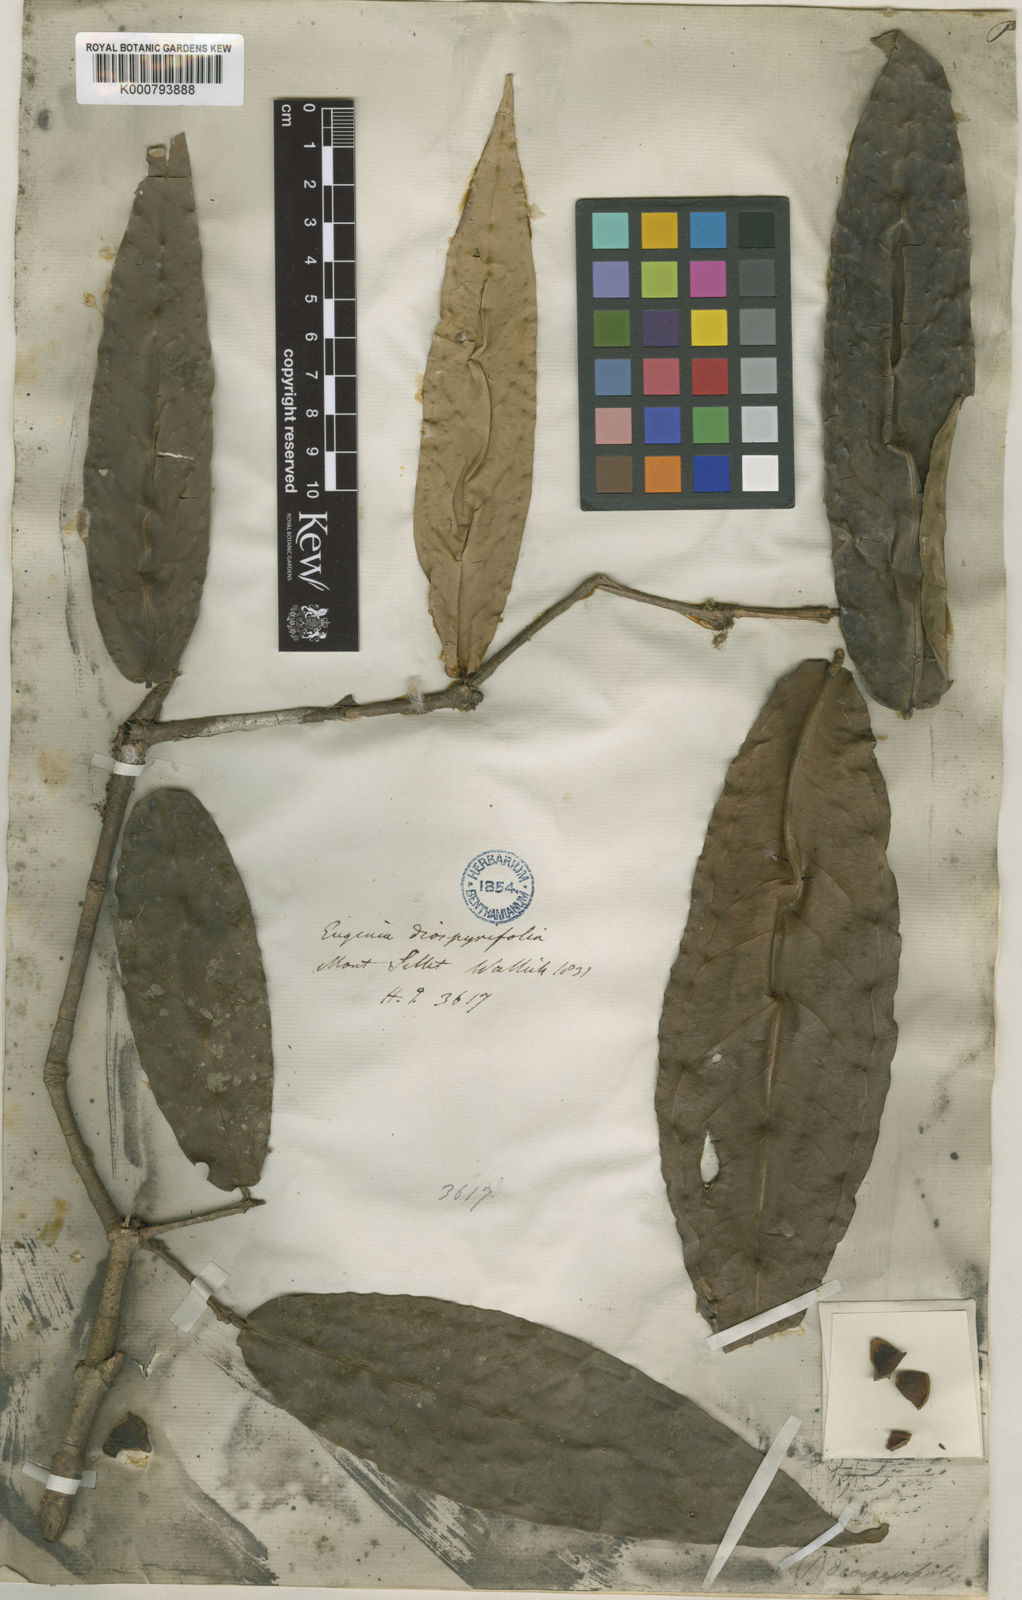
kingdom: Plantae
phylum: Tracheophyta
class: Magnoliopsida
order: Myrtales
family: Myrtaceae
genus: Syzygium
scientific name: Syzygium diospyrifolium
